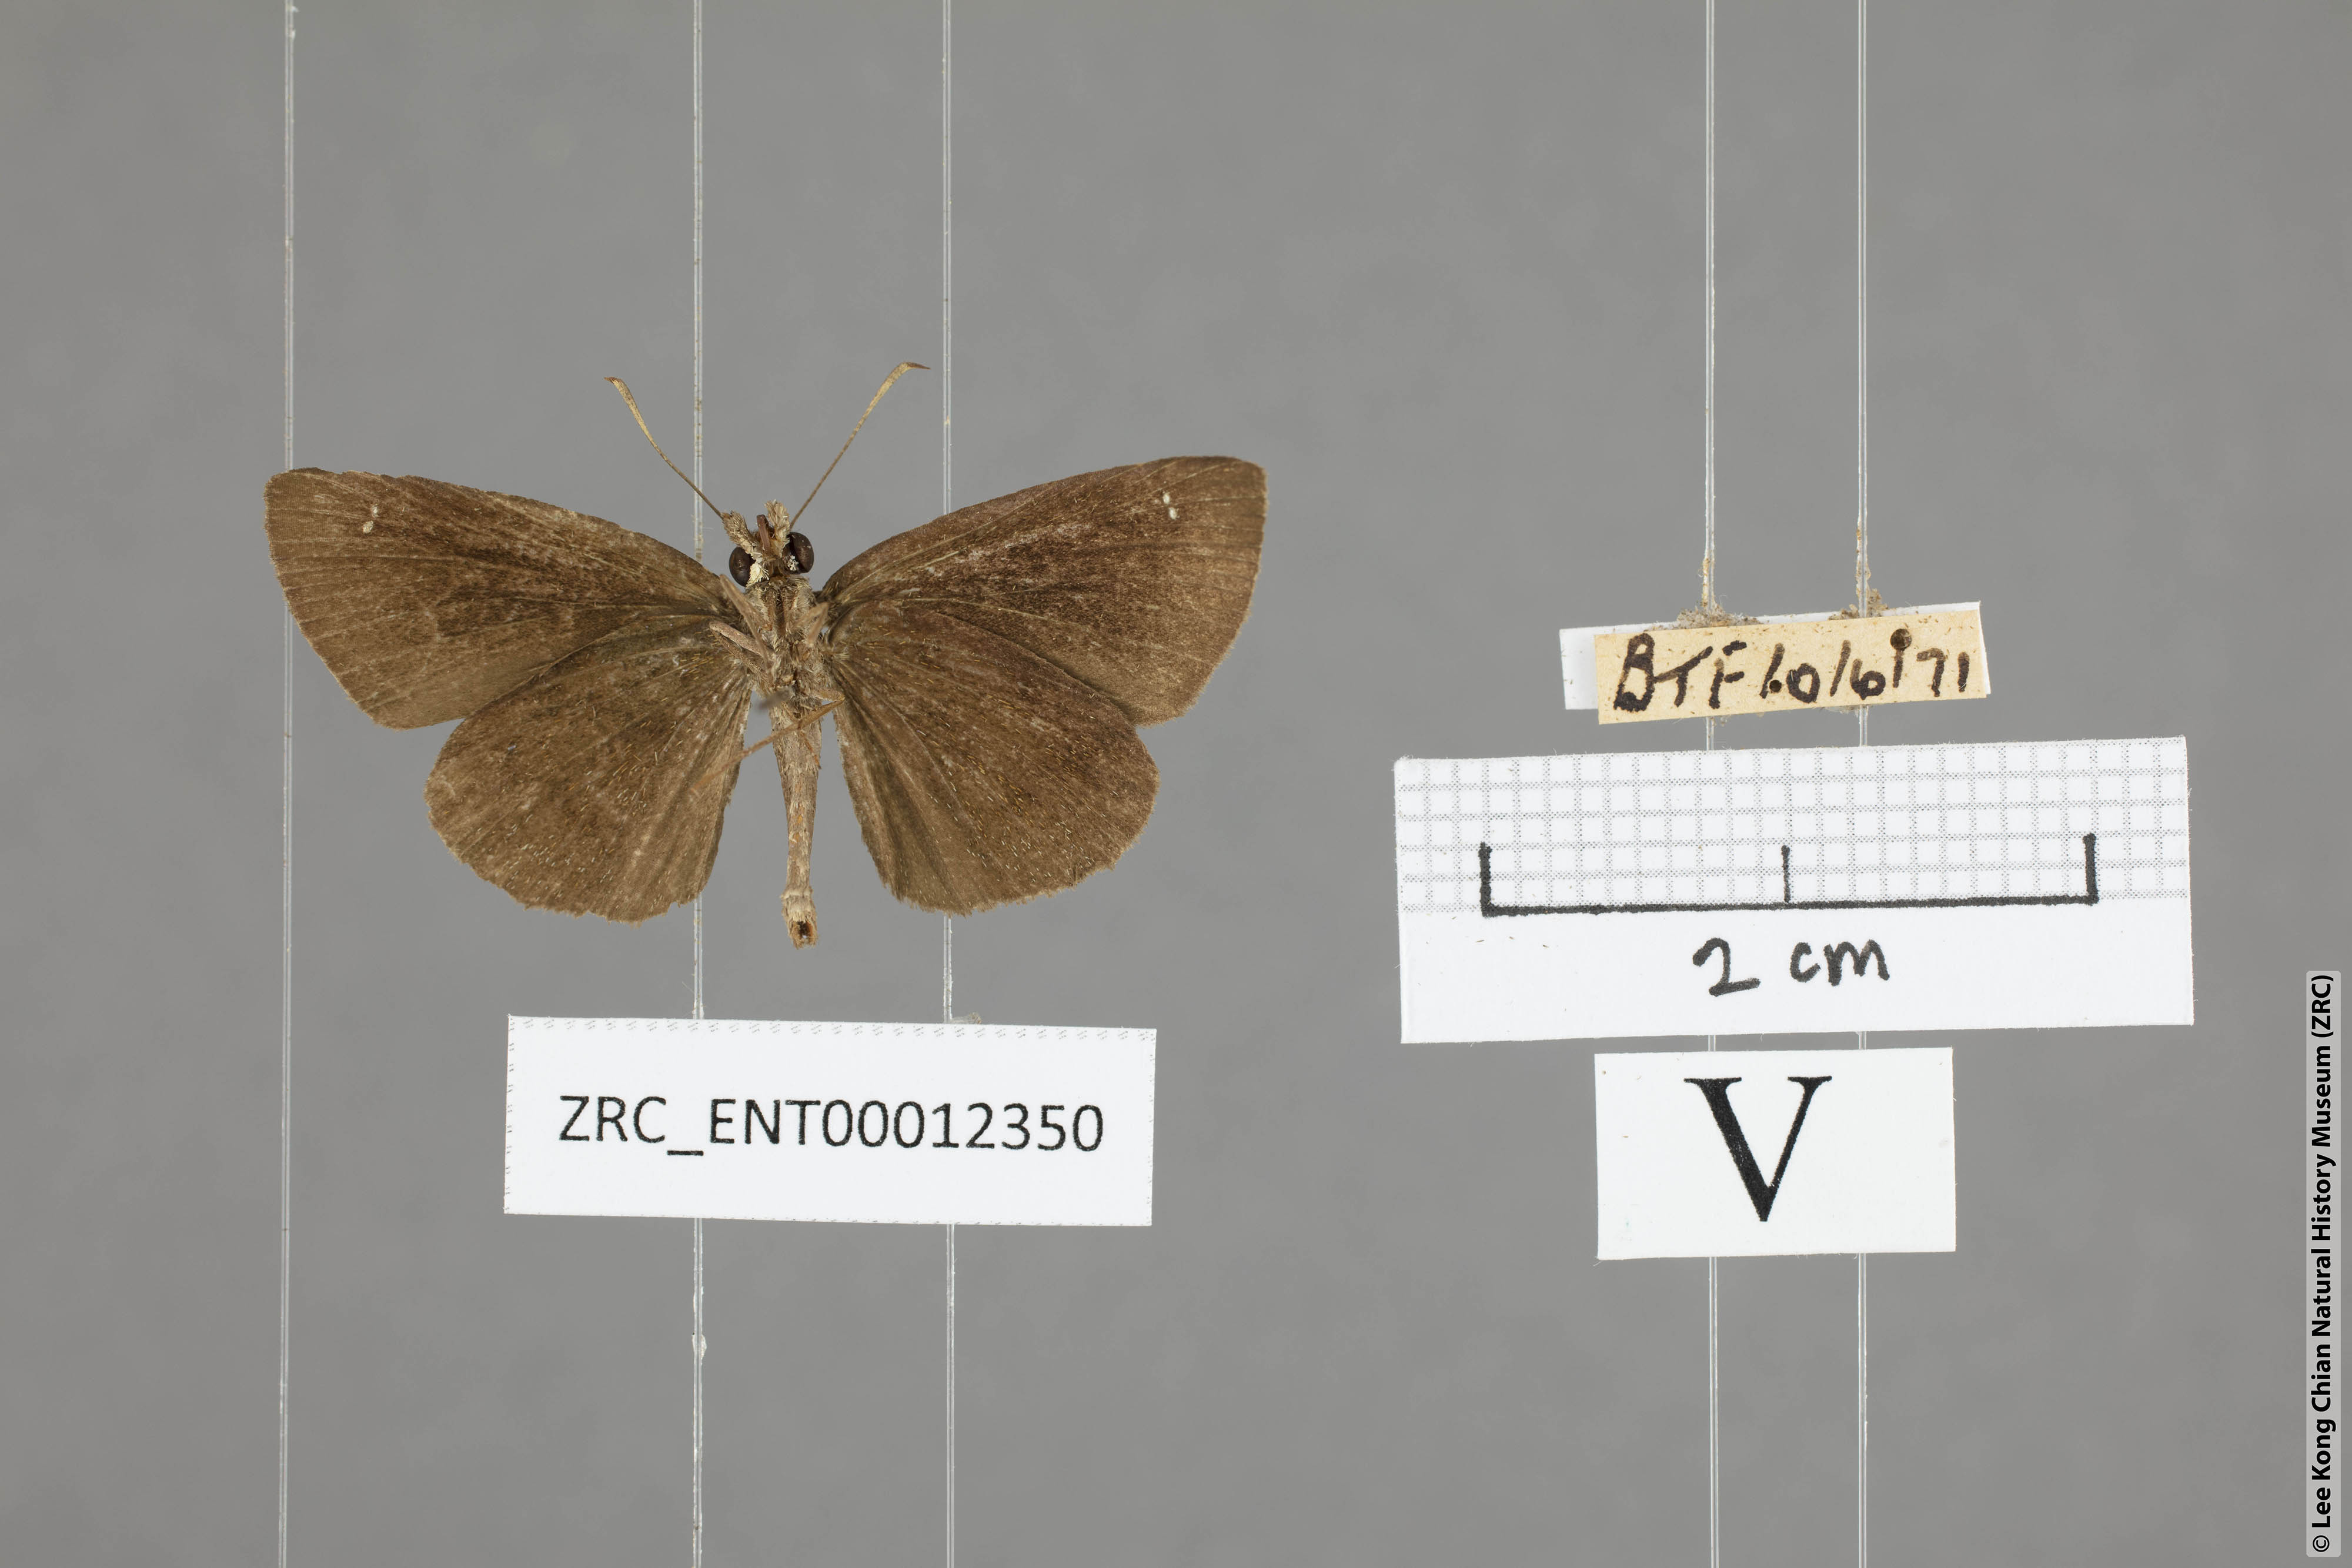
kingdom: Animalia
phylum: Arthropoda
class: Insecta
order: Lepidoptera
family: Hesperiidae
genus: Astictopterus
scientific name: Astictopterus jama
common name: Forest hopper
